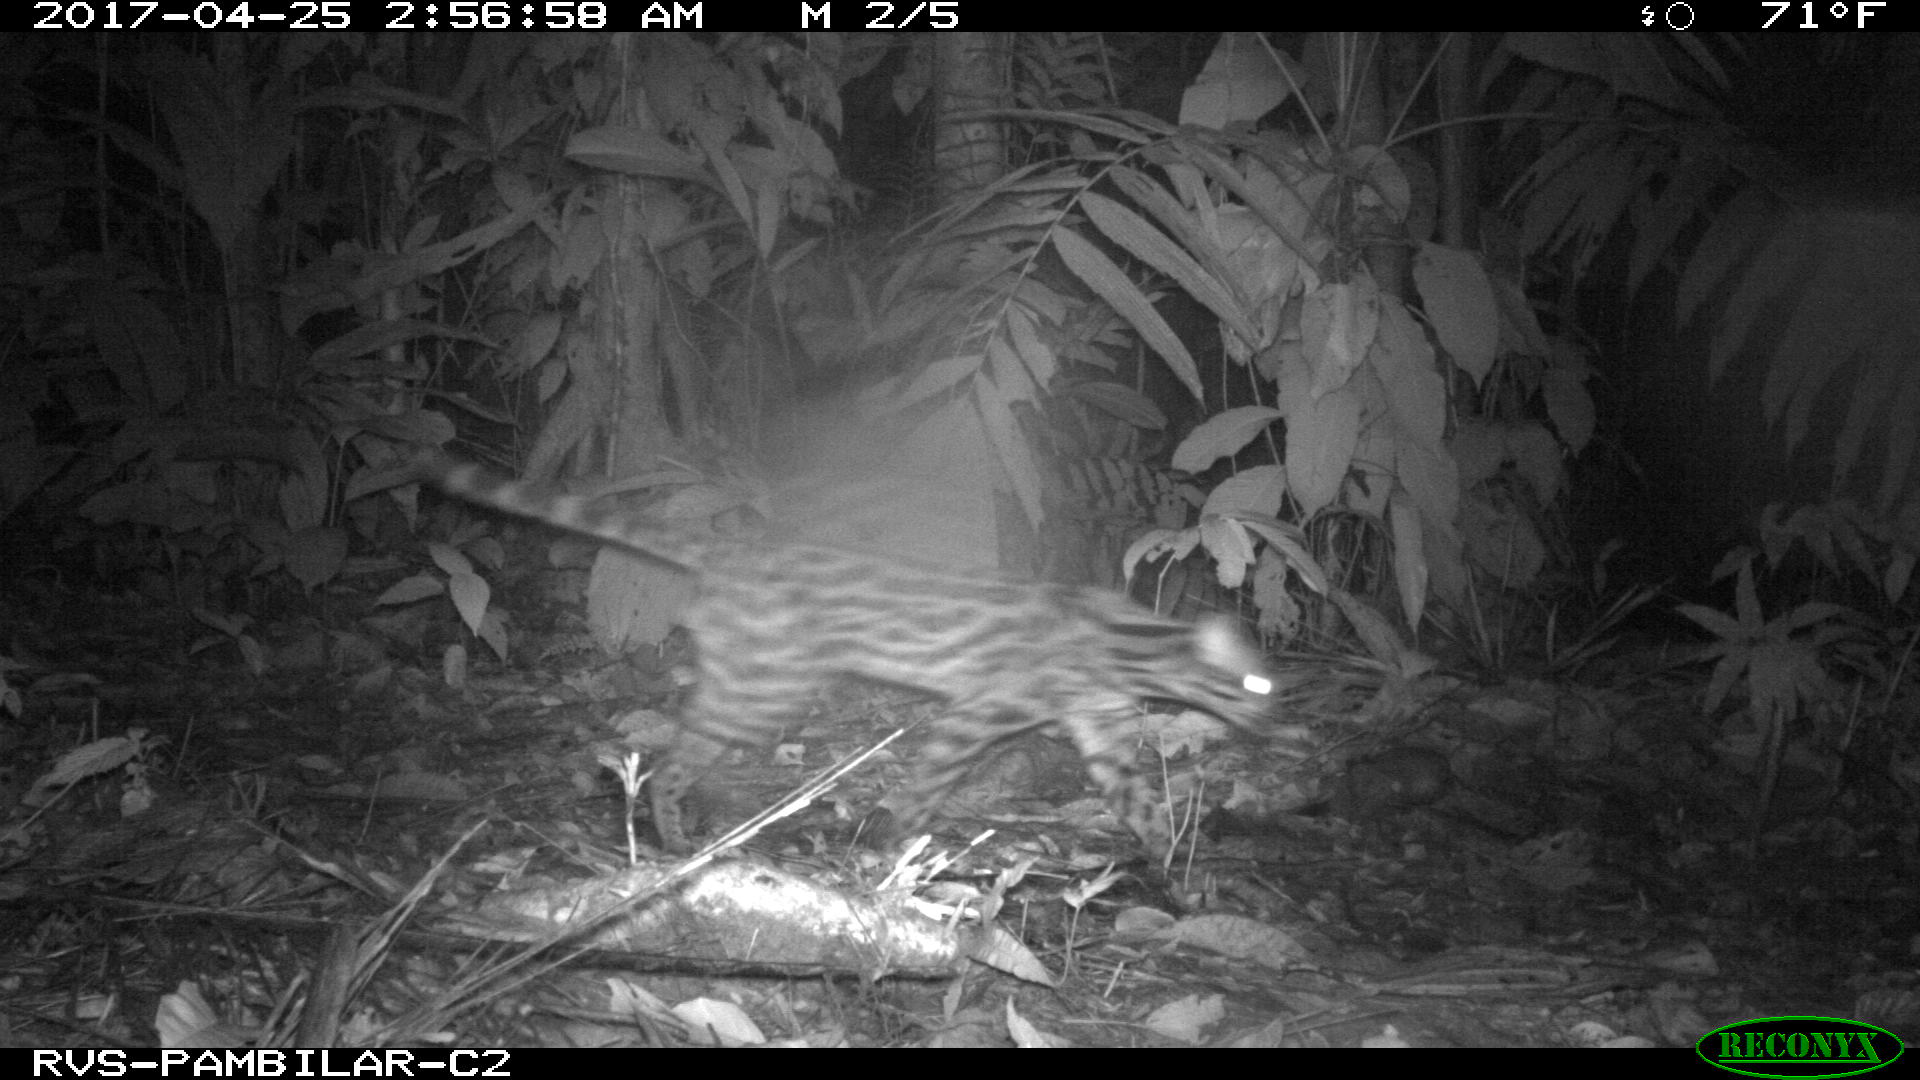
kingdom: Animalia
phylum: Chordata
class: Mammalia
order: Carnivora
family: Felidae
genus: Leopardus
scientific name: Leopardus pardalis
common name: Ocelot
